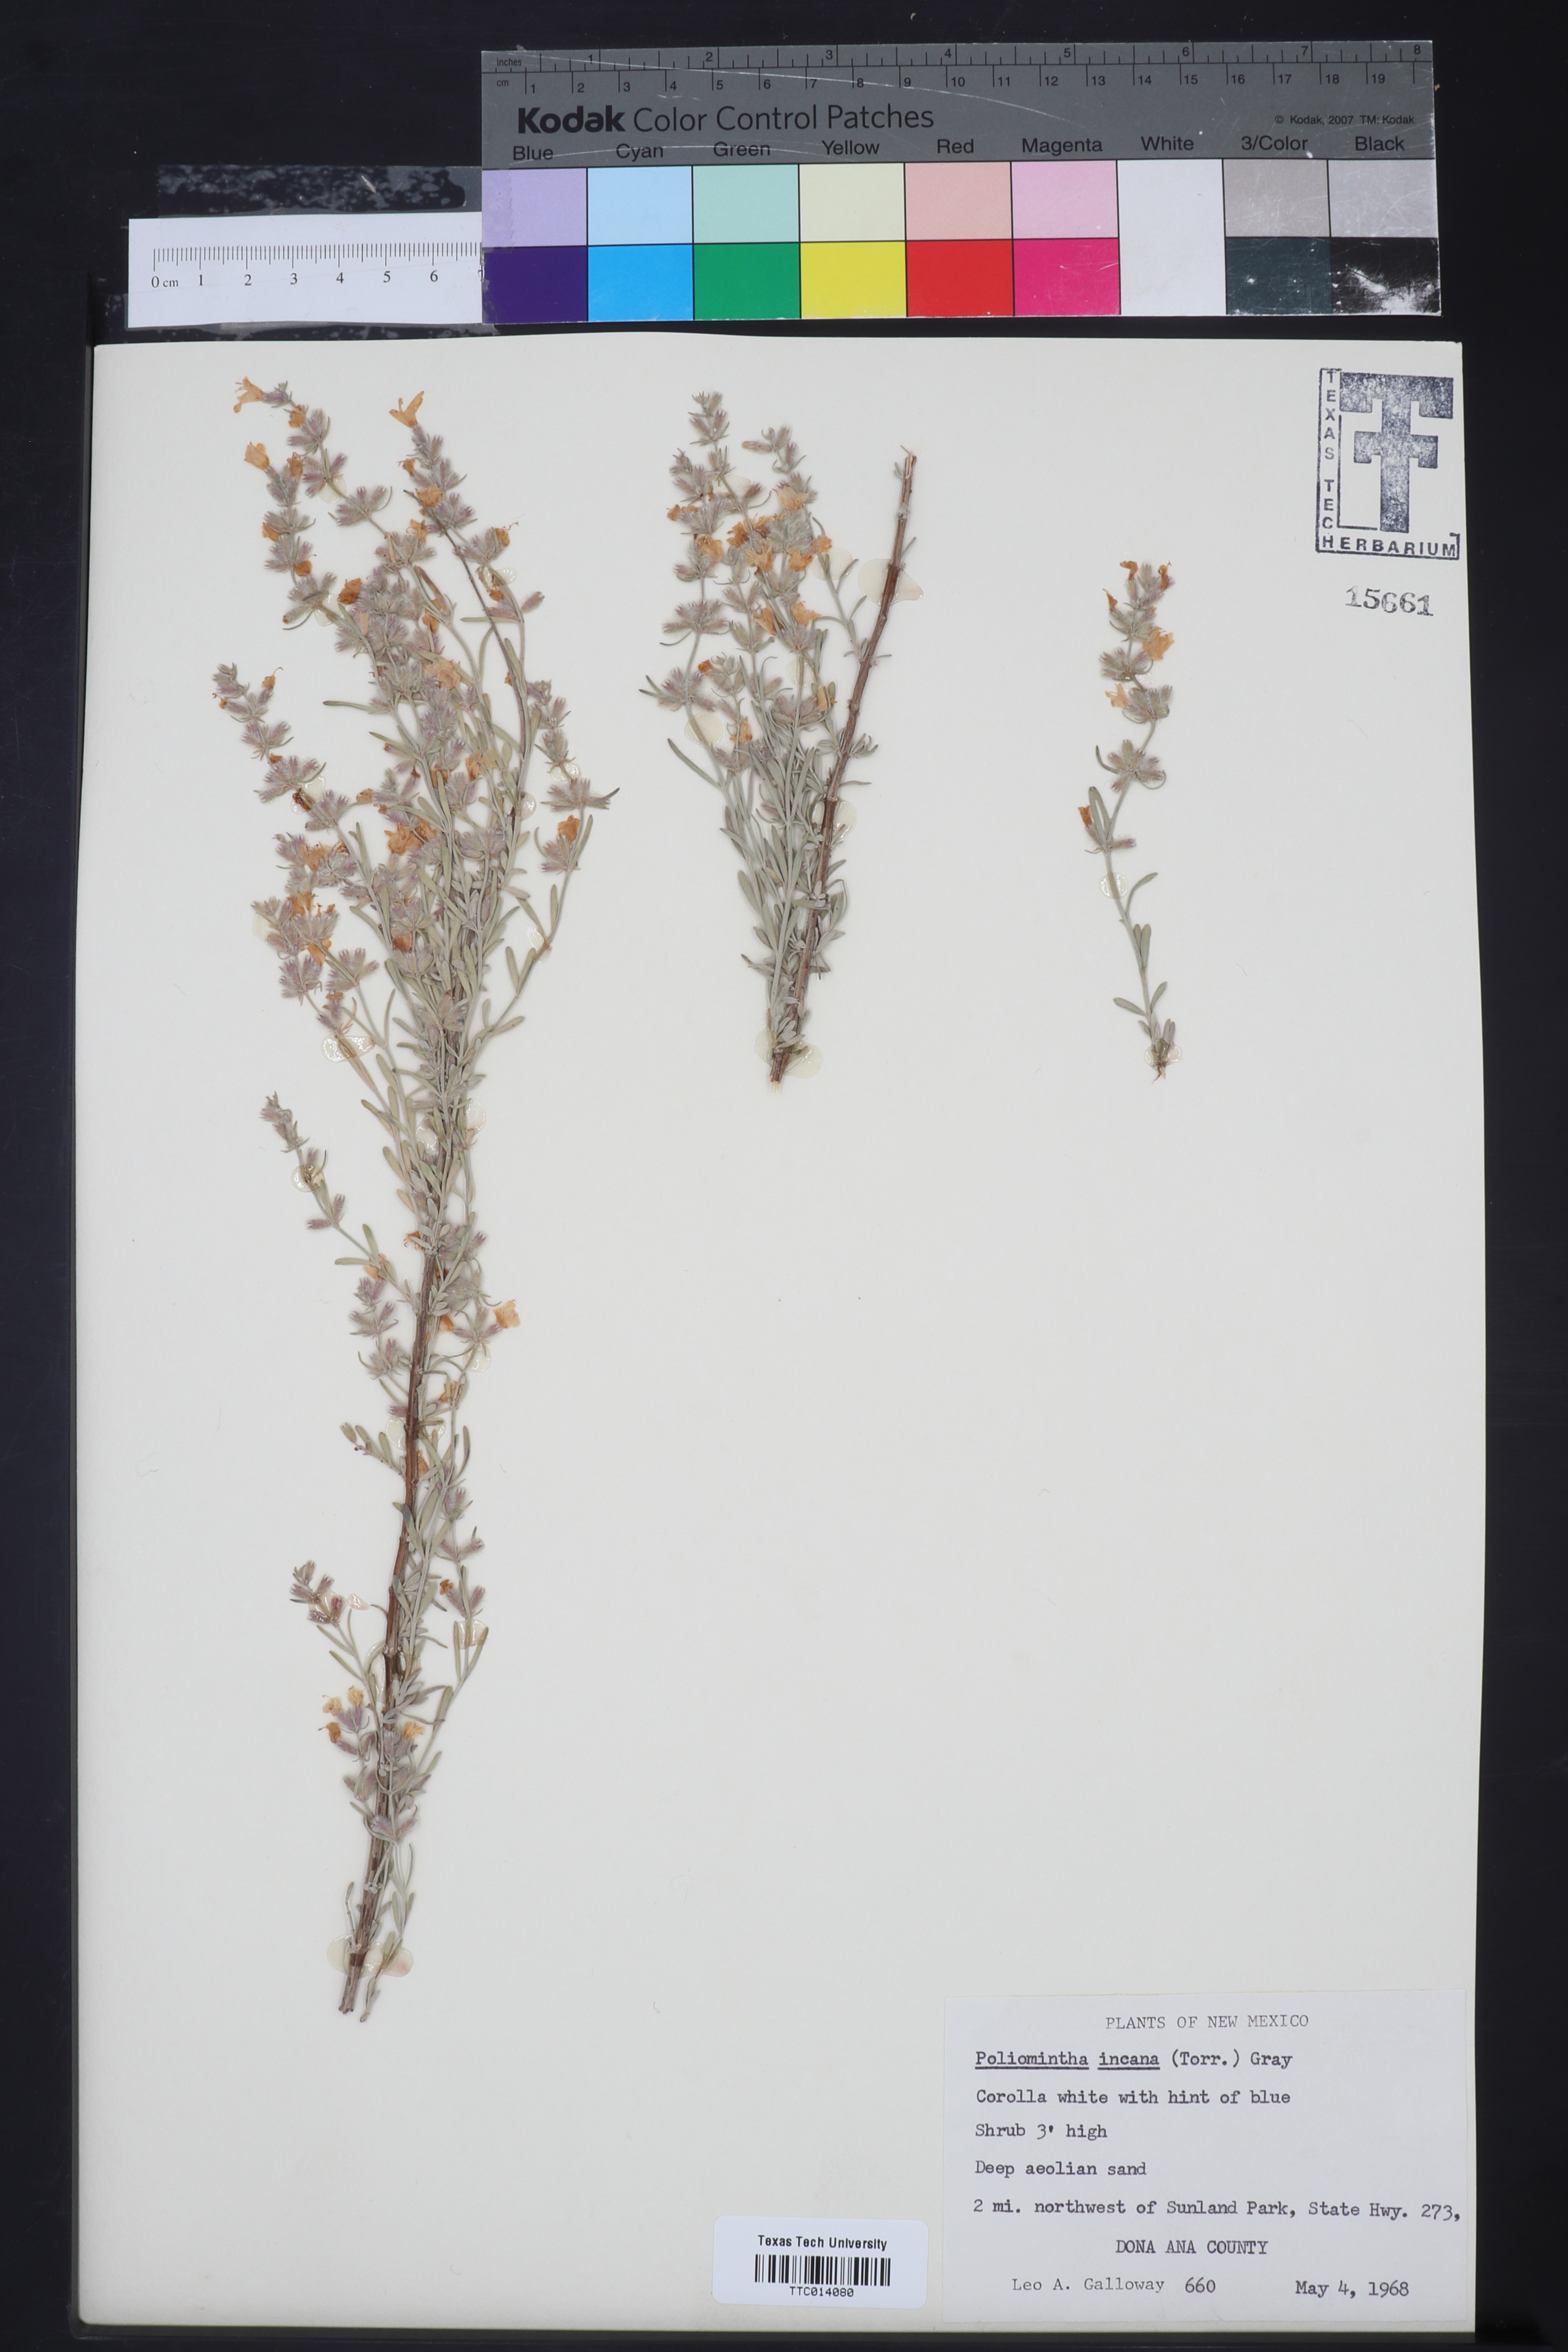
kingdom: Plantae
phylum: Tracheophyta
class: Magnoliopsida
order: Lamiales
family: Lamiaceae
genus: Poliomintha
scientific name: Poliomintha incana
